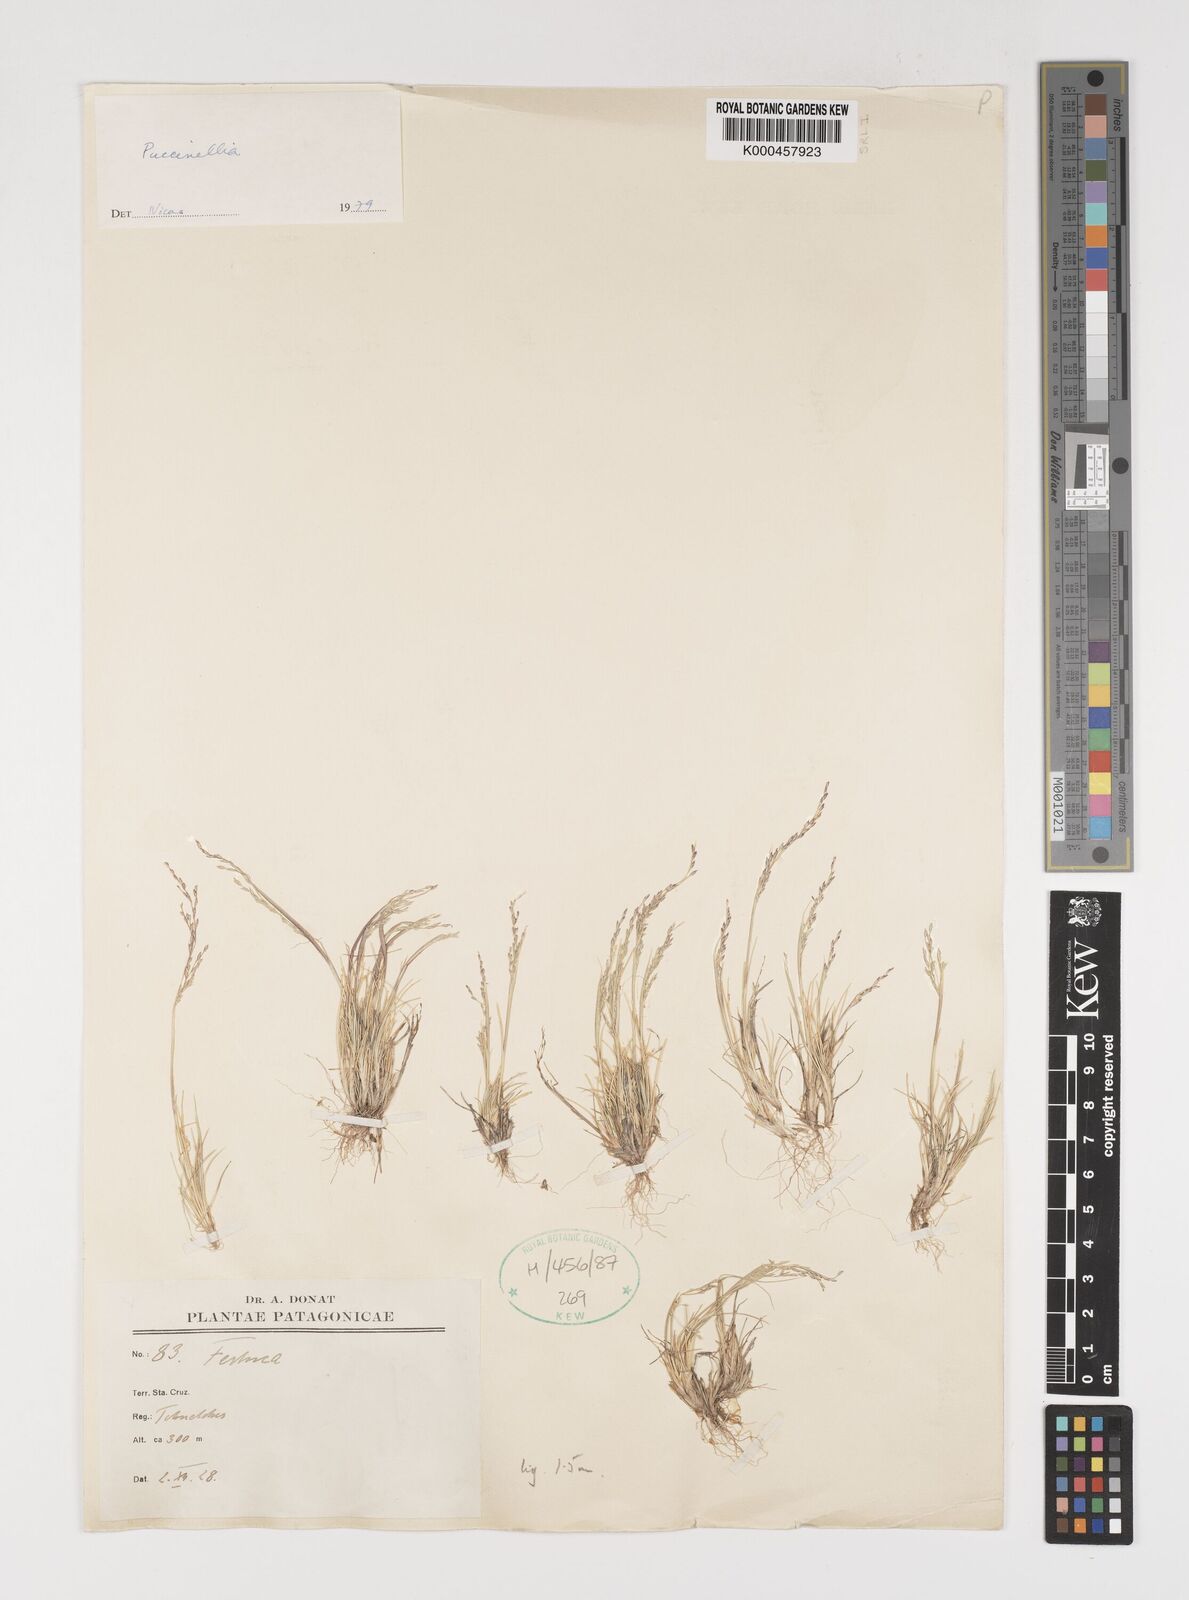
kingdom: Plantae
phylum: Tracheophyta
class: Liliopsida
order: Poales
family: Poaceae
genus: Puccinellia
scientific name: Puccinellia pusilla
